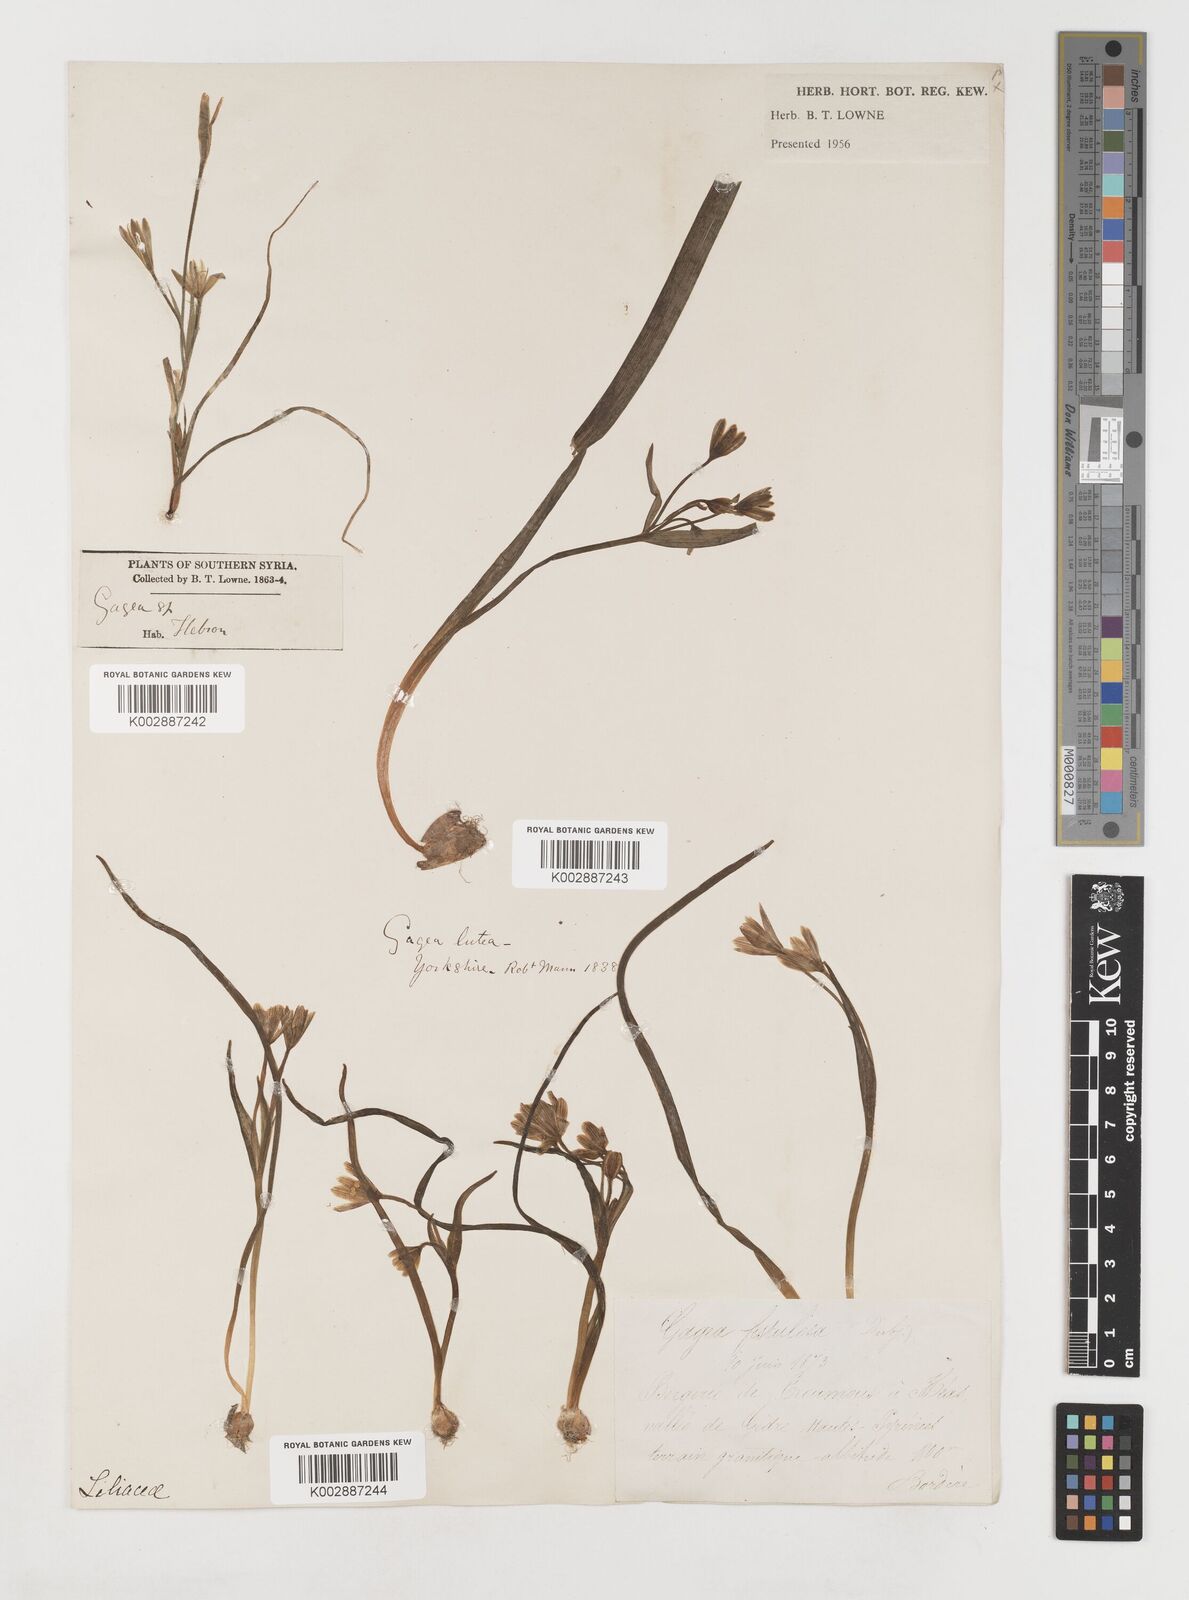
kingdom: Plantae
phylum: Tracheophyta
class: Liliopsida
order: Liliales
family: Liliaceae
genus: Gagea
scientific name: Gagea bohemica
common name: Early star-of-bethlehem
